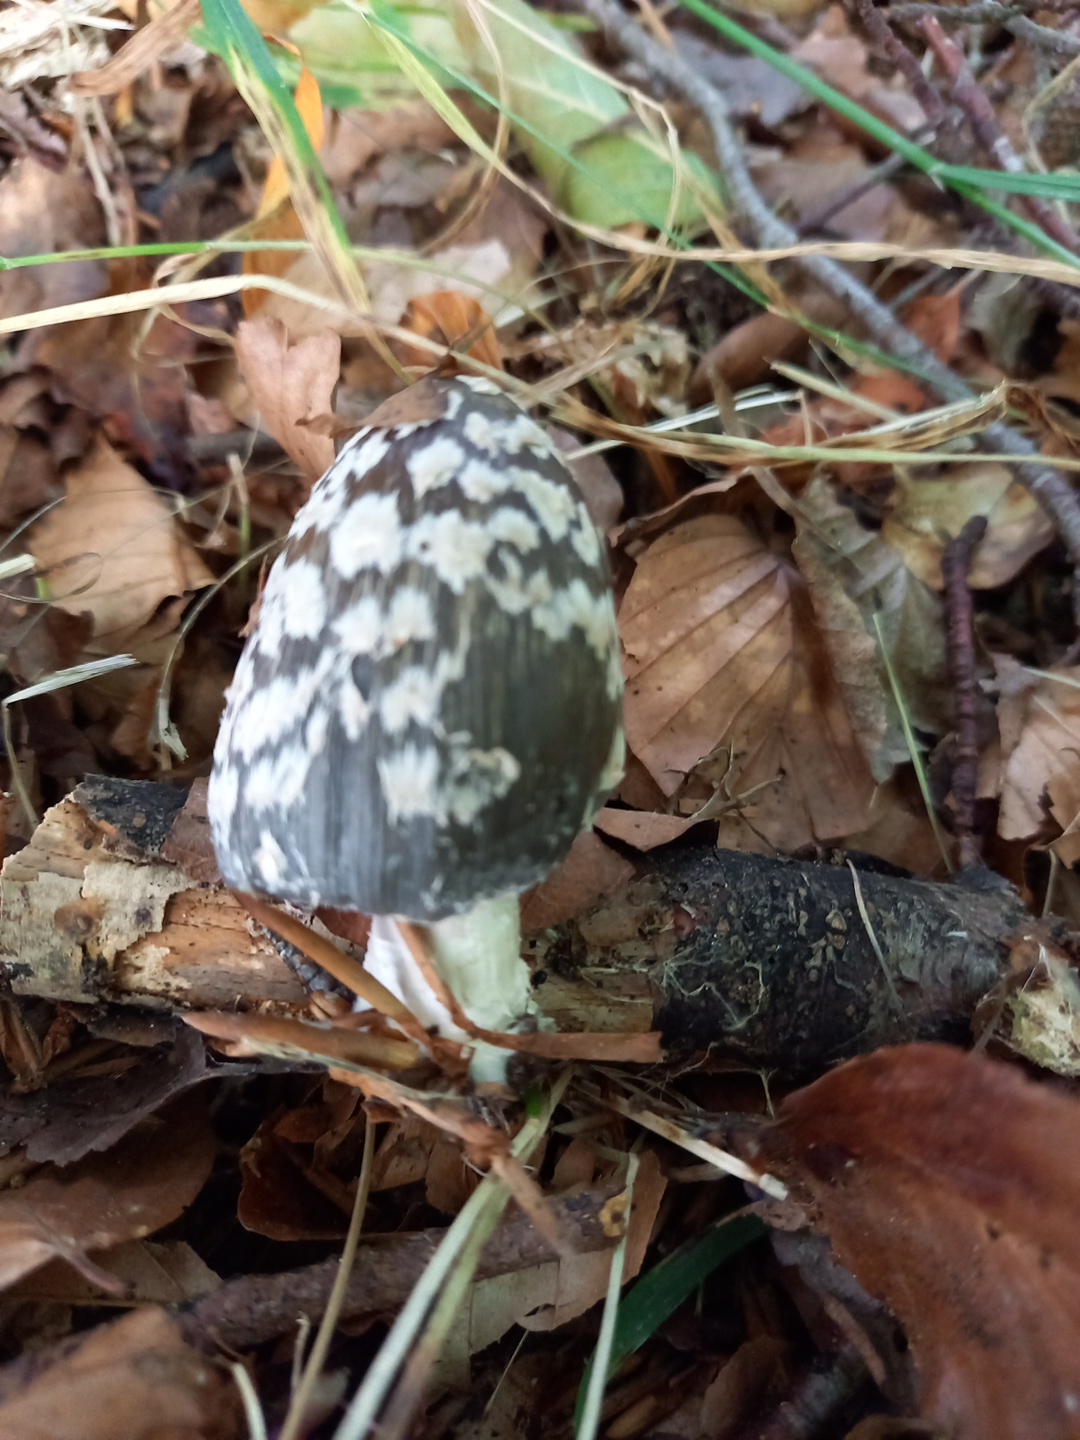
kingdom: Fungi
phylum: Basidiomycota
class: Agaricomycetes
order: Agaricales
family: Psathyrellaceae
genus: Coprinopsis
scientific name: Coprinopsis picacea
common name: skade-blækhat
